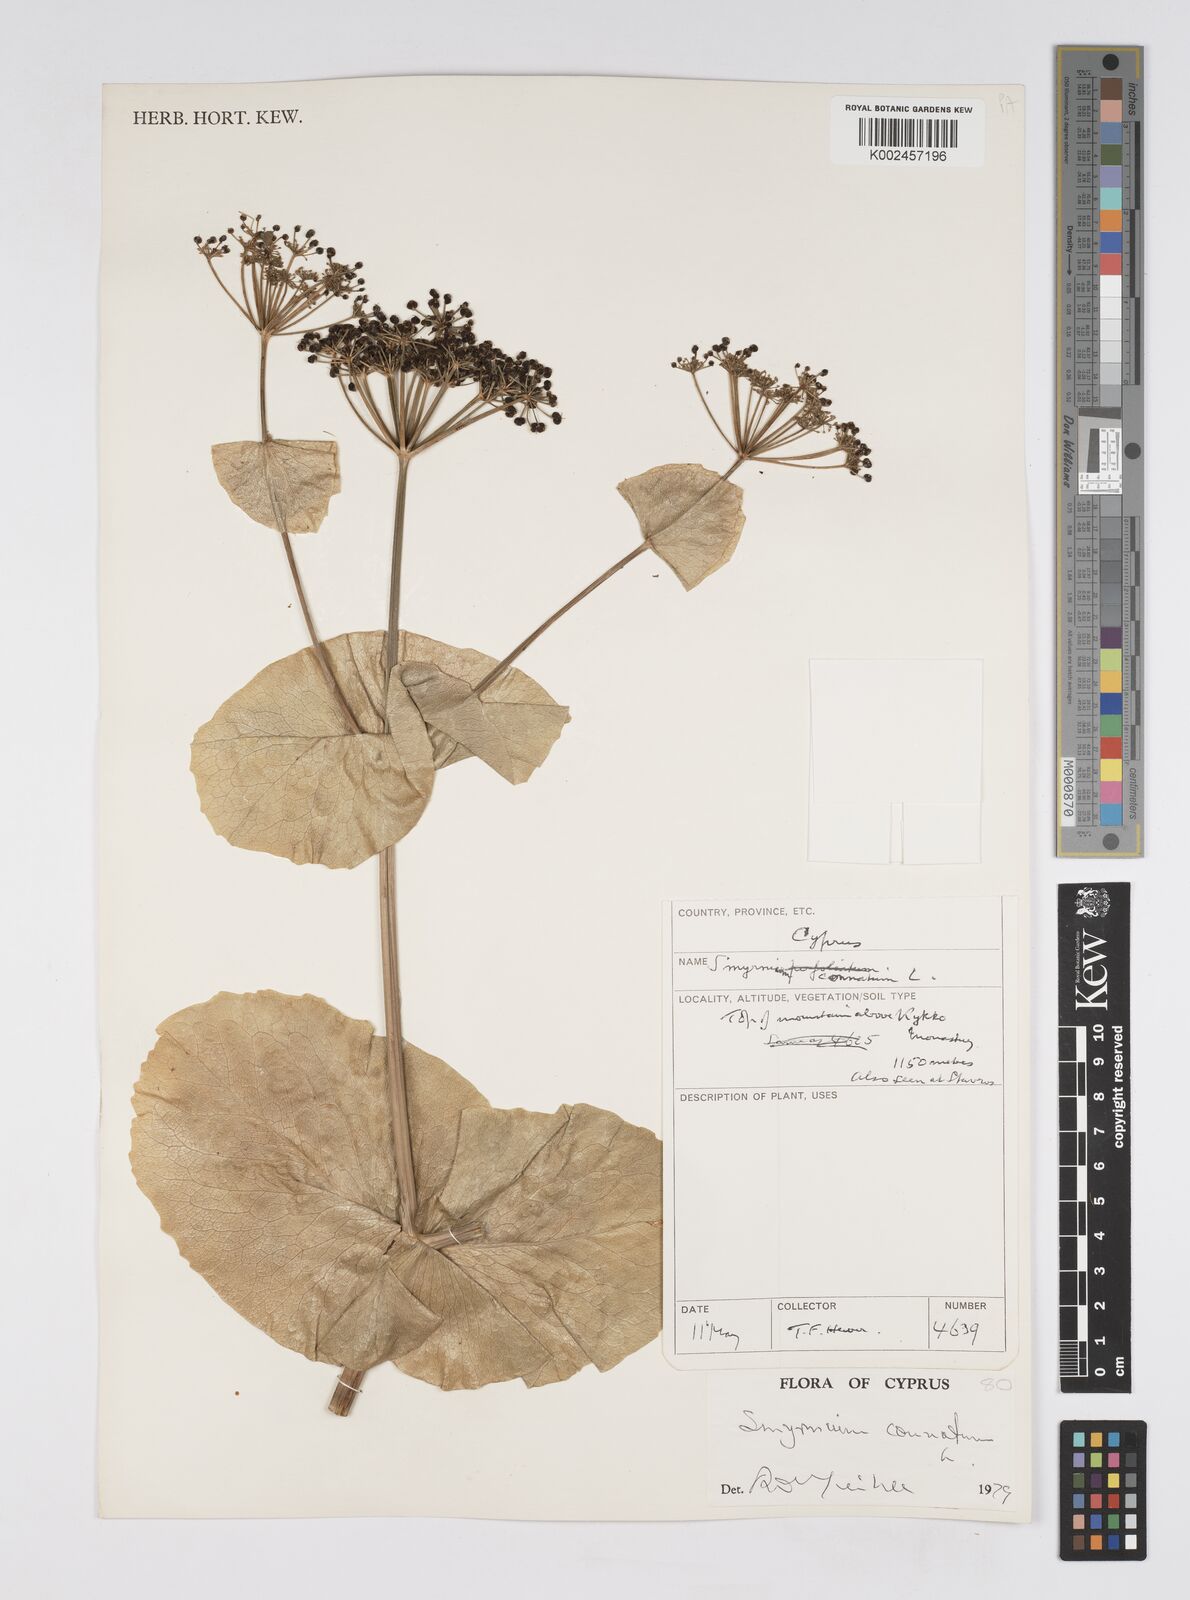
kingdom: Plantae
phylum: Tracheophyta
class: Magnoliopsida
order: Apiales
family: Apiaceae
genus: Smyrnium
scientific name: Smyrnium connatum
